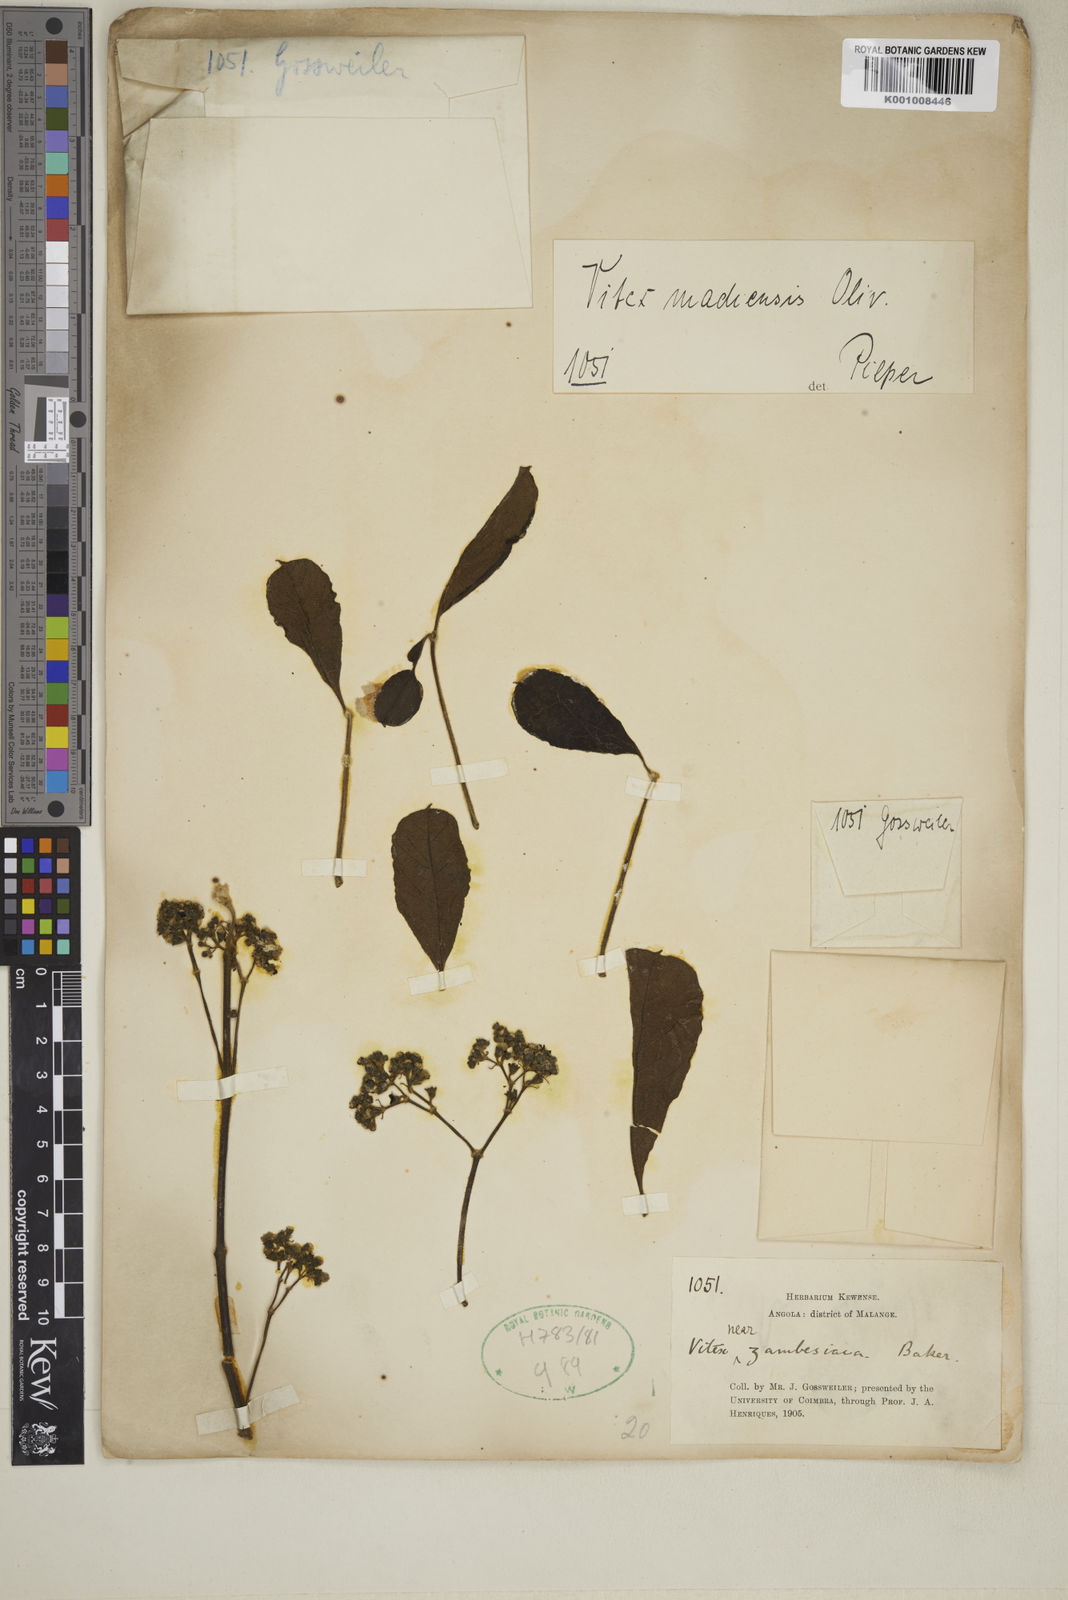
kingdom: Plantae
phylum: Tracheophyta
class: Magnoliopsida
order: Lamiales
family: Lamiaceae
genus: Vitex
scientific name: Vitex madiensis
